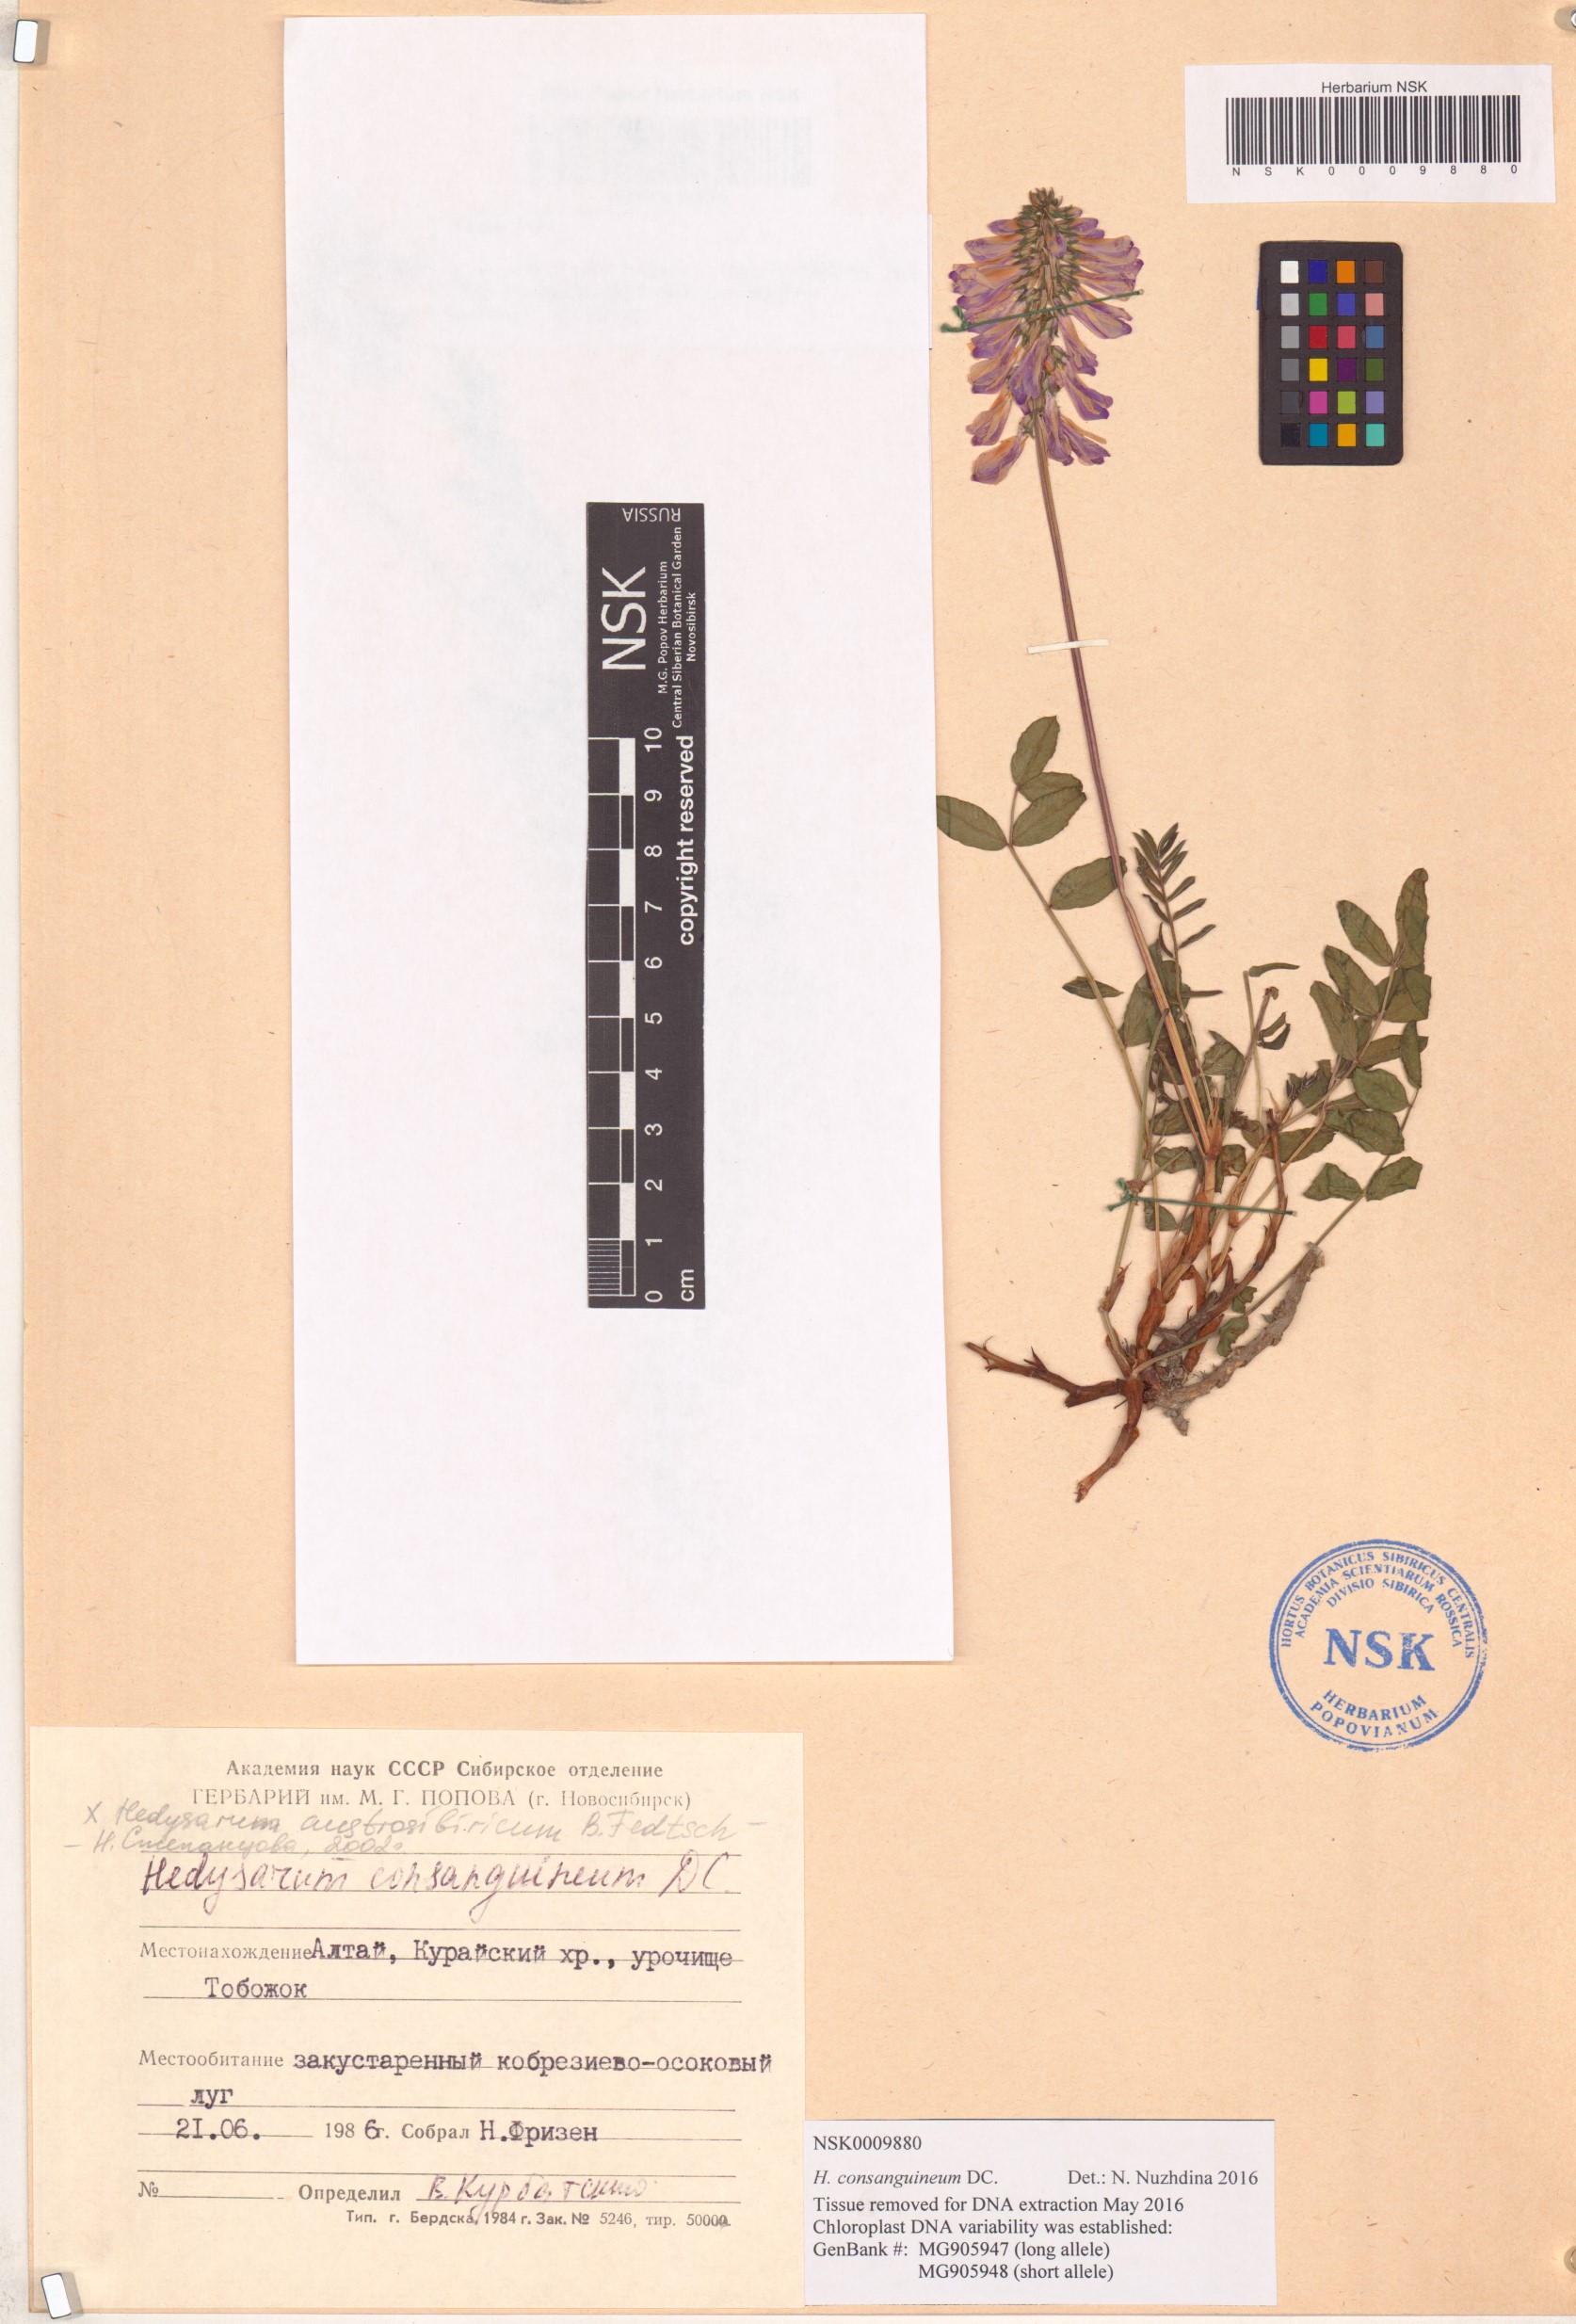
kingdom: Plantae
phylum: Tracheophyta
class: Magnoliopsida
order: Fabales
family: Fabaceae
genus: Hedysarum
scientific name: Hedysarum consanguineum
